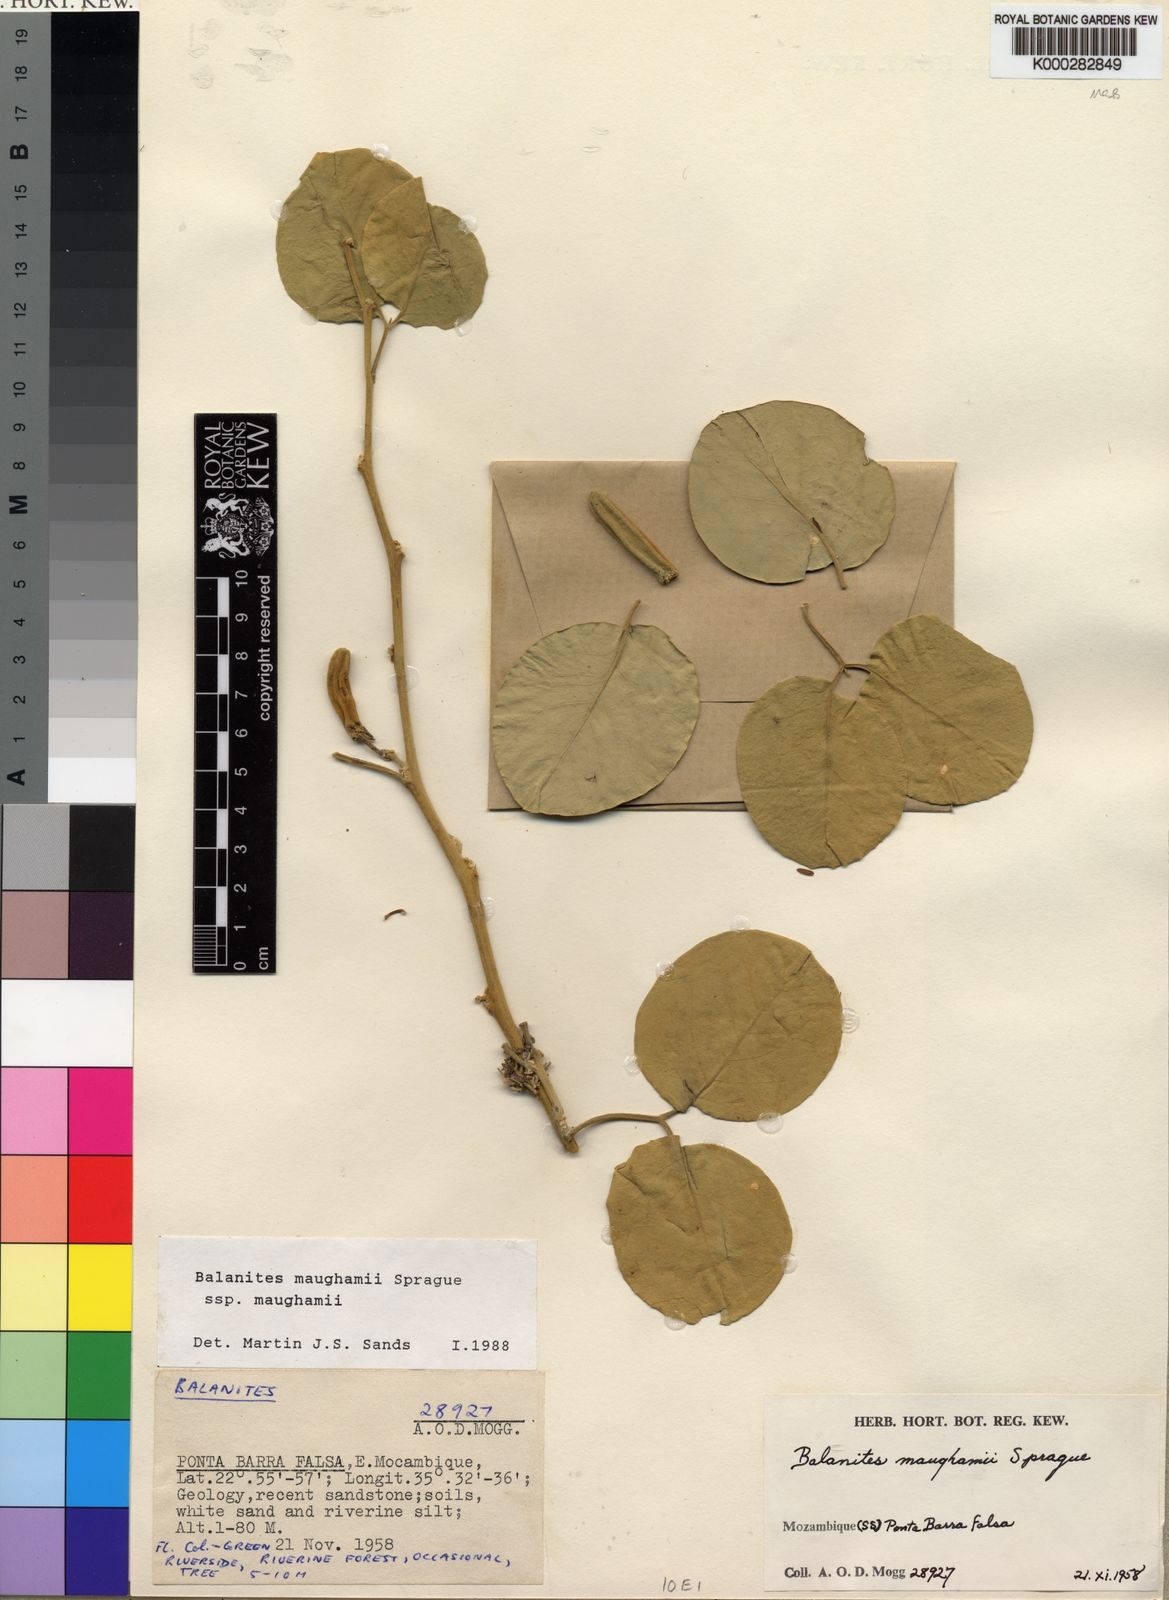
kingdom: Plantae
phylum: Tracheophyta
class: Magnoliopsida
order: Zygophyllales
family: Zygophyllaceae
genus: Balanites
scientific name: Balanites maughamii
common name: Torchwood
